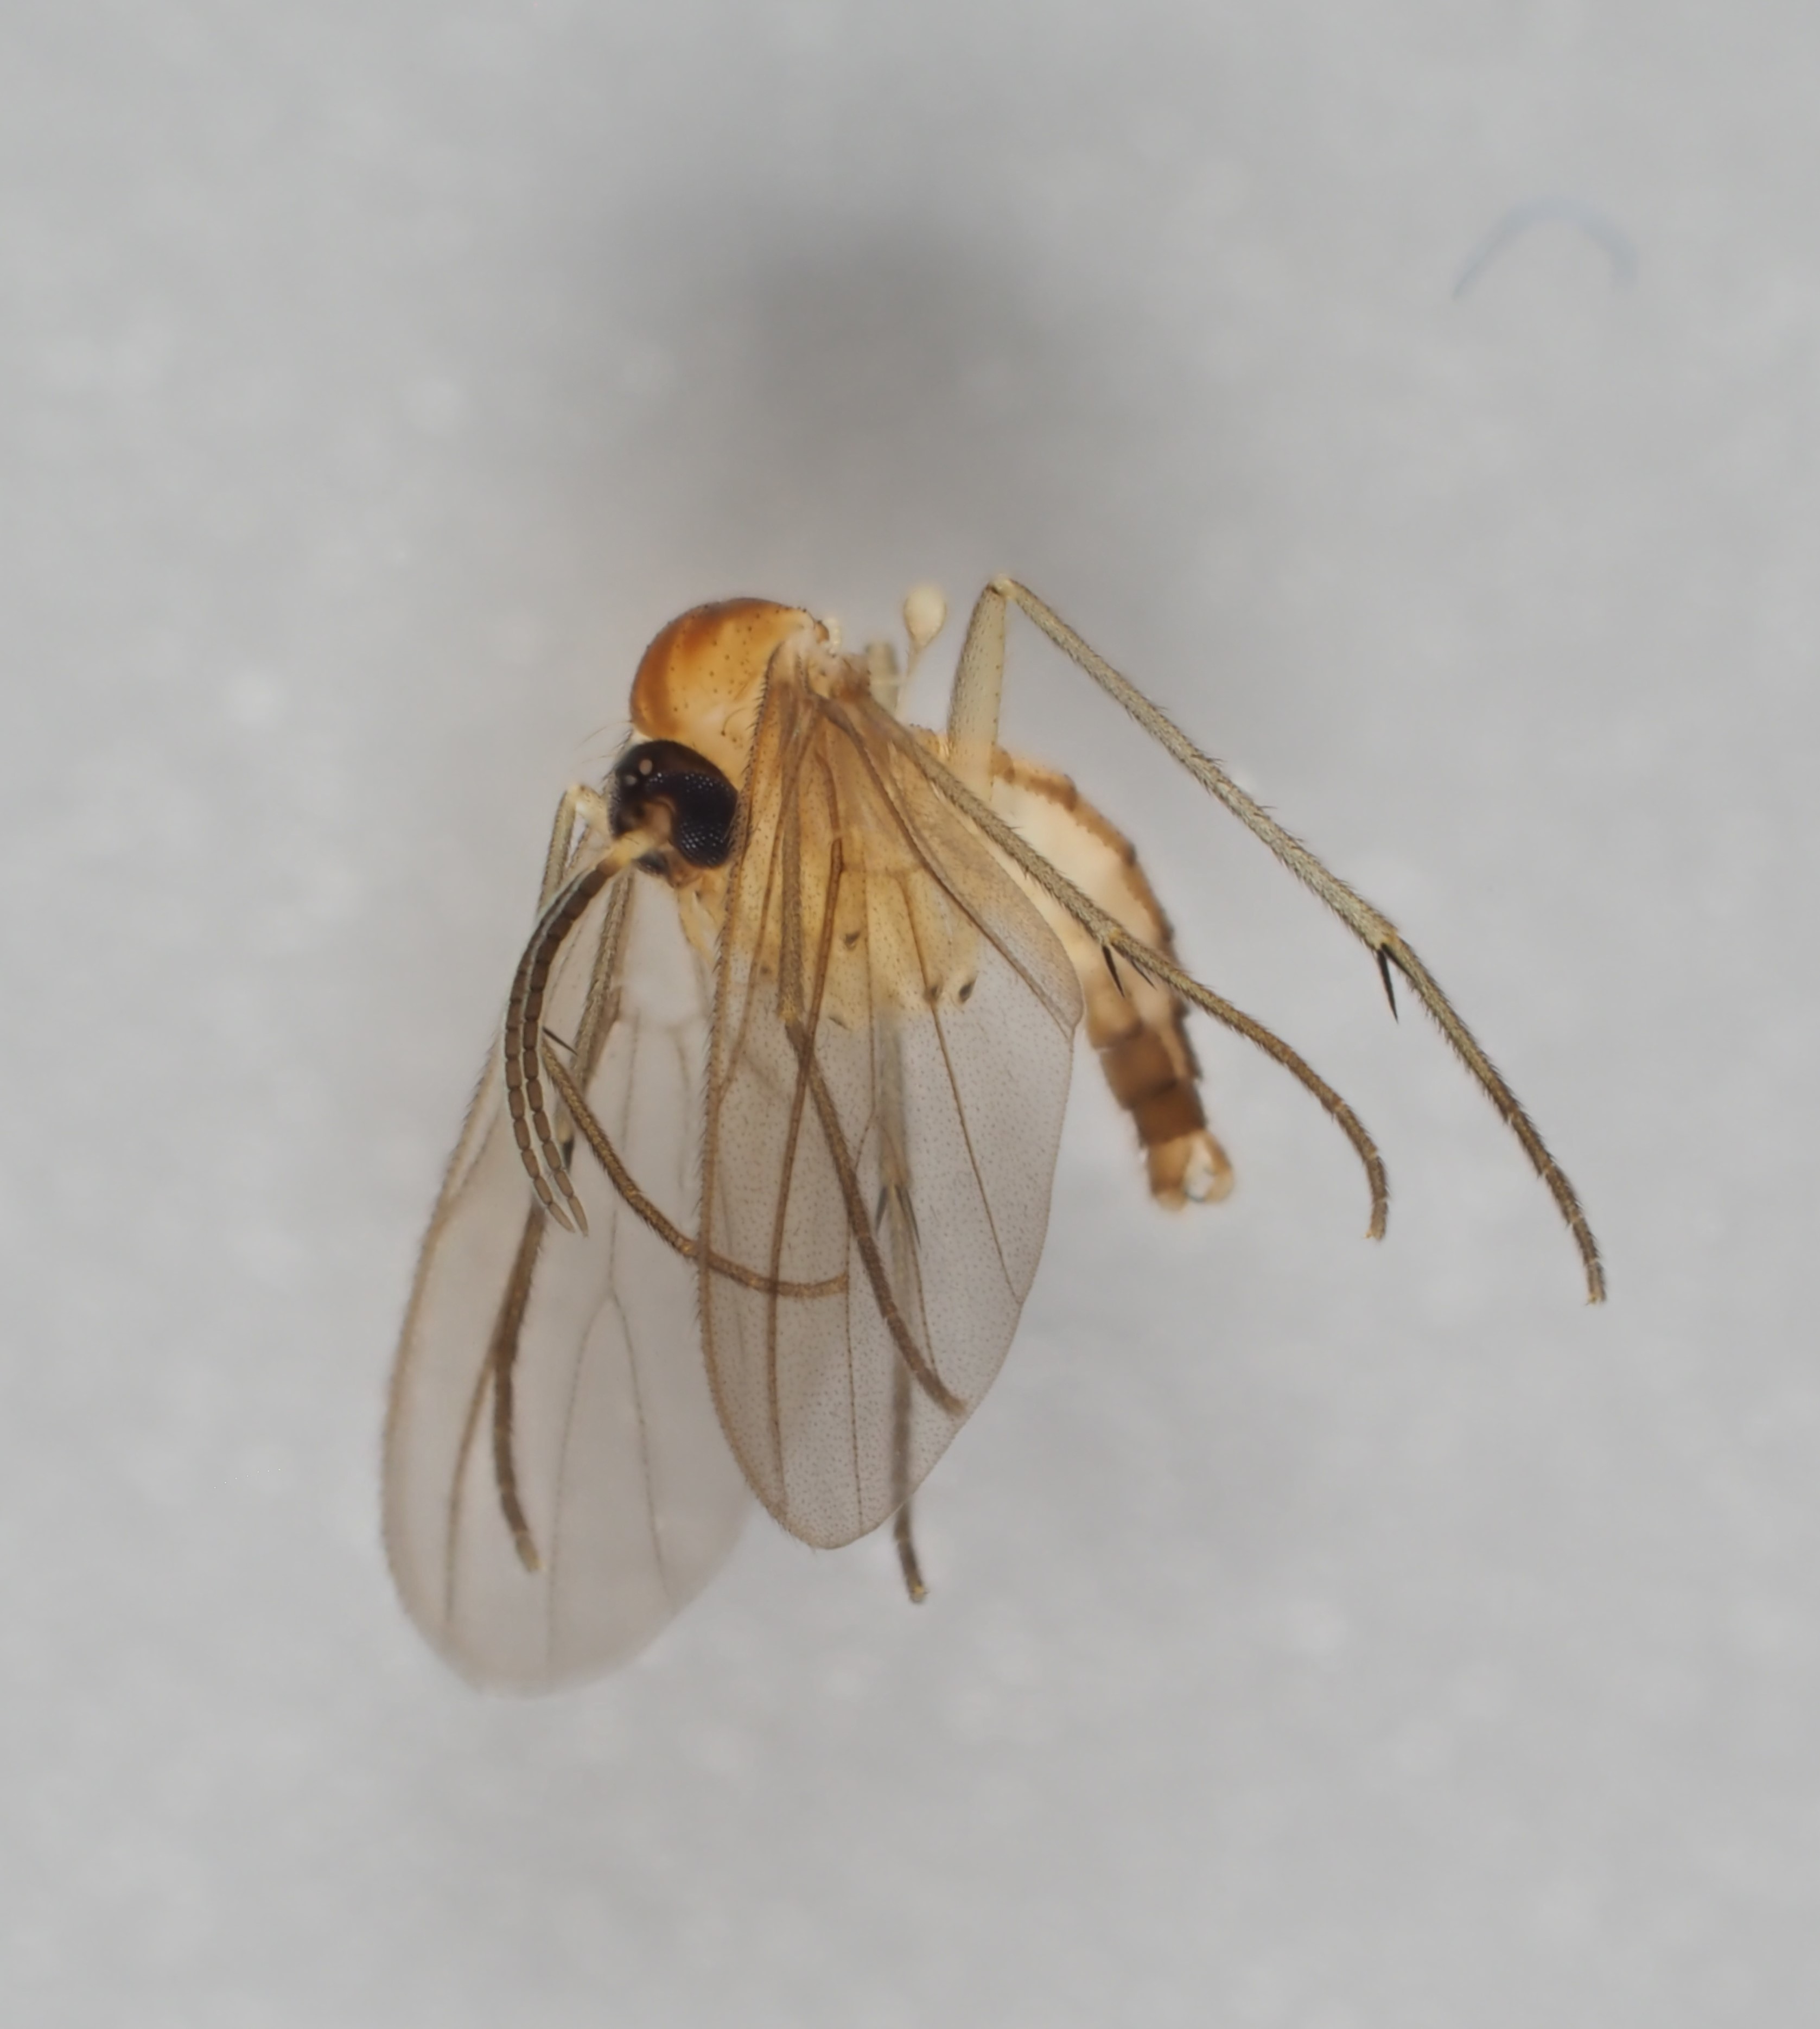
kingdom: Animalia
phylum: Arthropoda
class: Insecta
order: Diptera
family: Diadocidiidae
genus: Diadocidia
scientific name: Diadocidia ferruginosa
